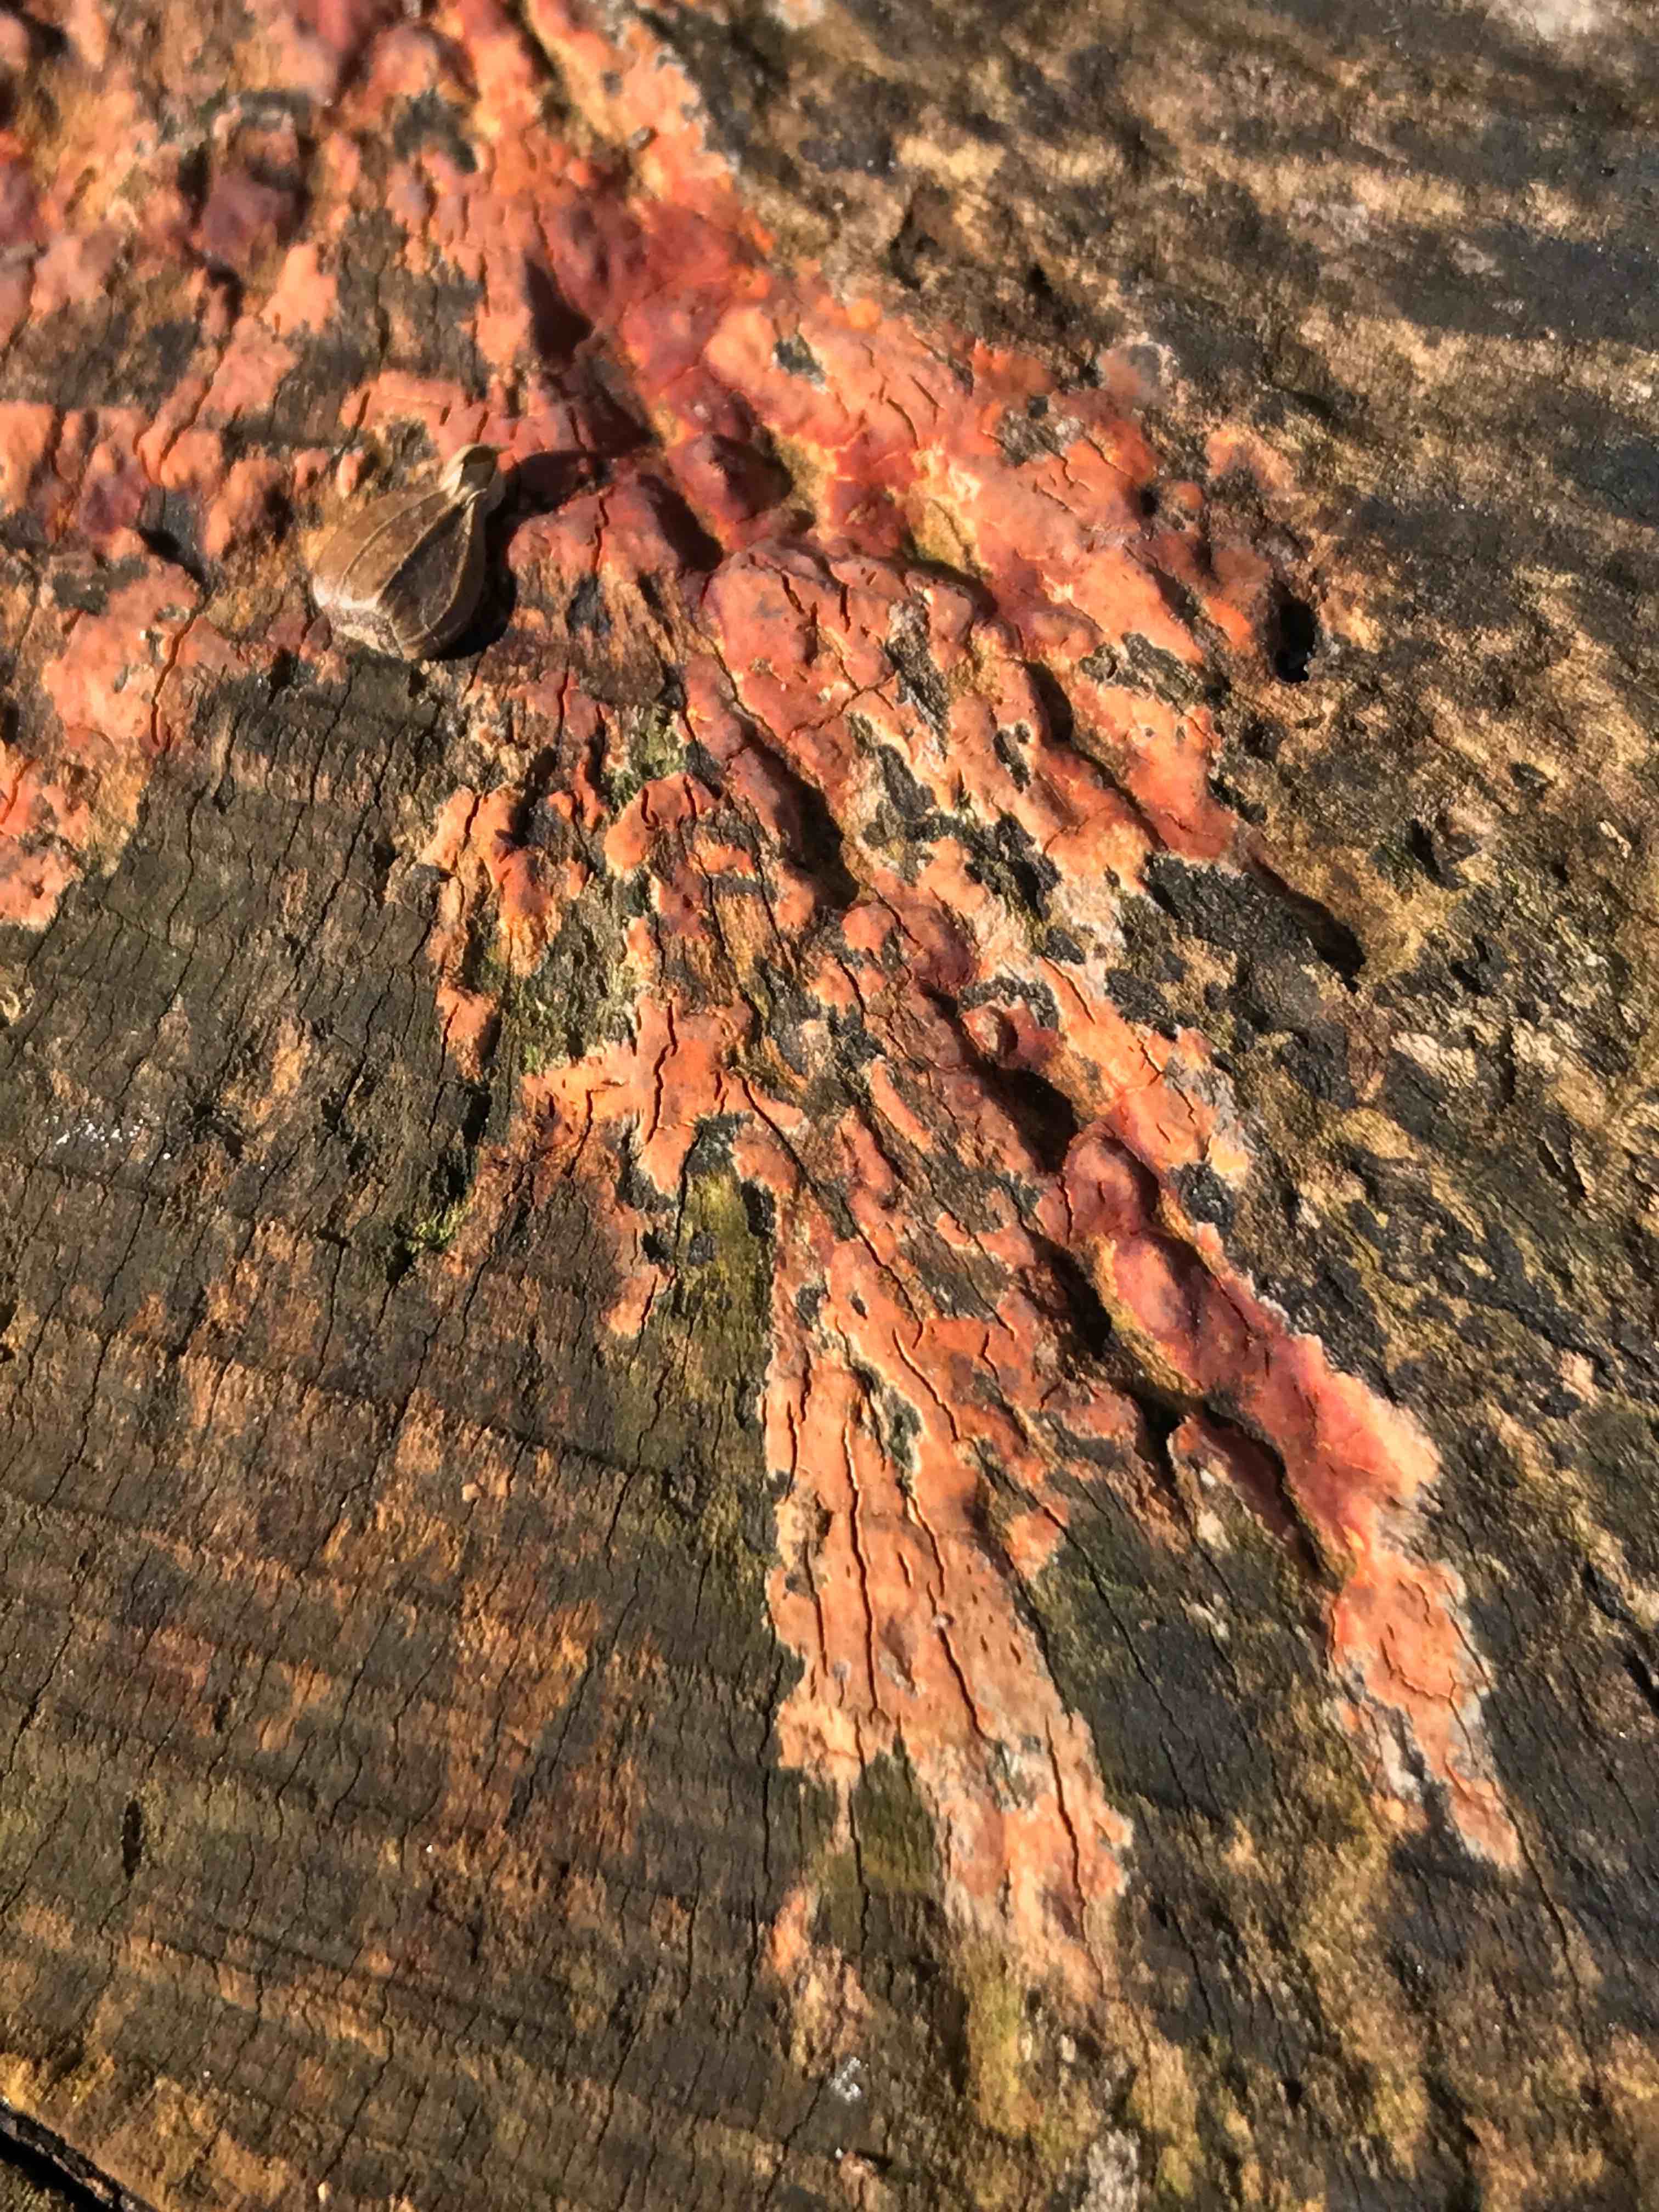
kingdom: Fungi
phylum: Basidiomycota
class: Agaricomycetes
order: Russulales
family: Peniophoraceae
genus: Peniophora
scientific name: Peniophora incarnata
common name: laksefarvet voksskind
